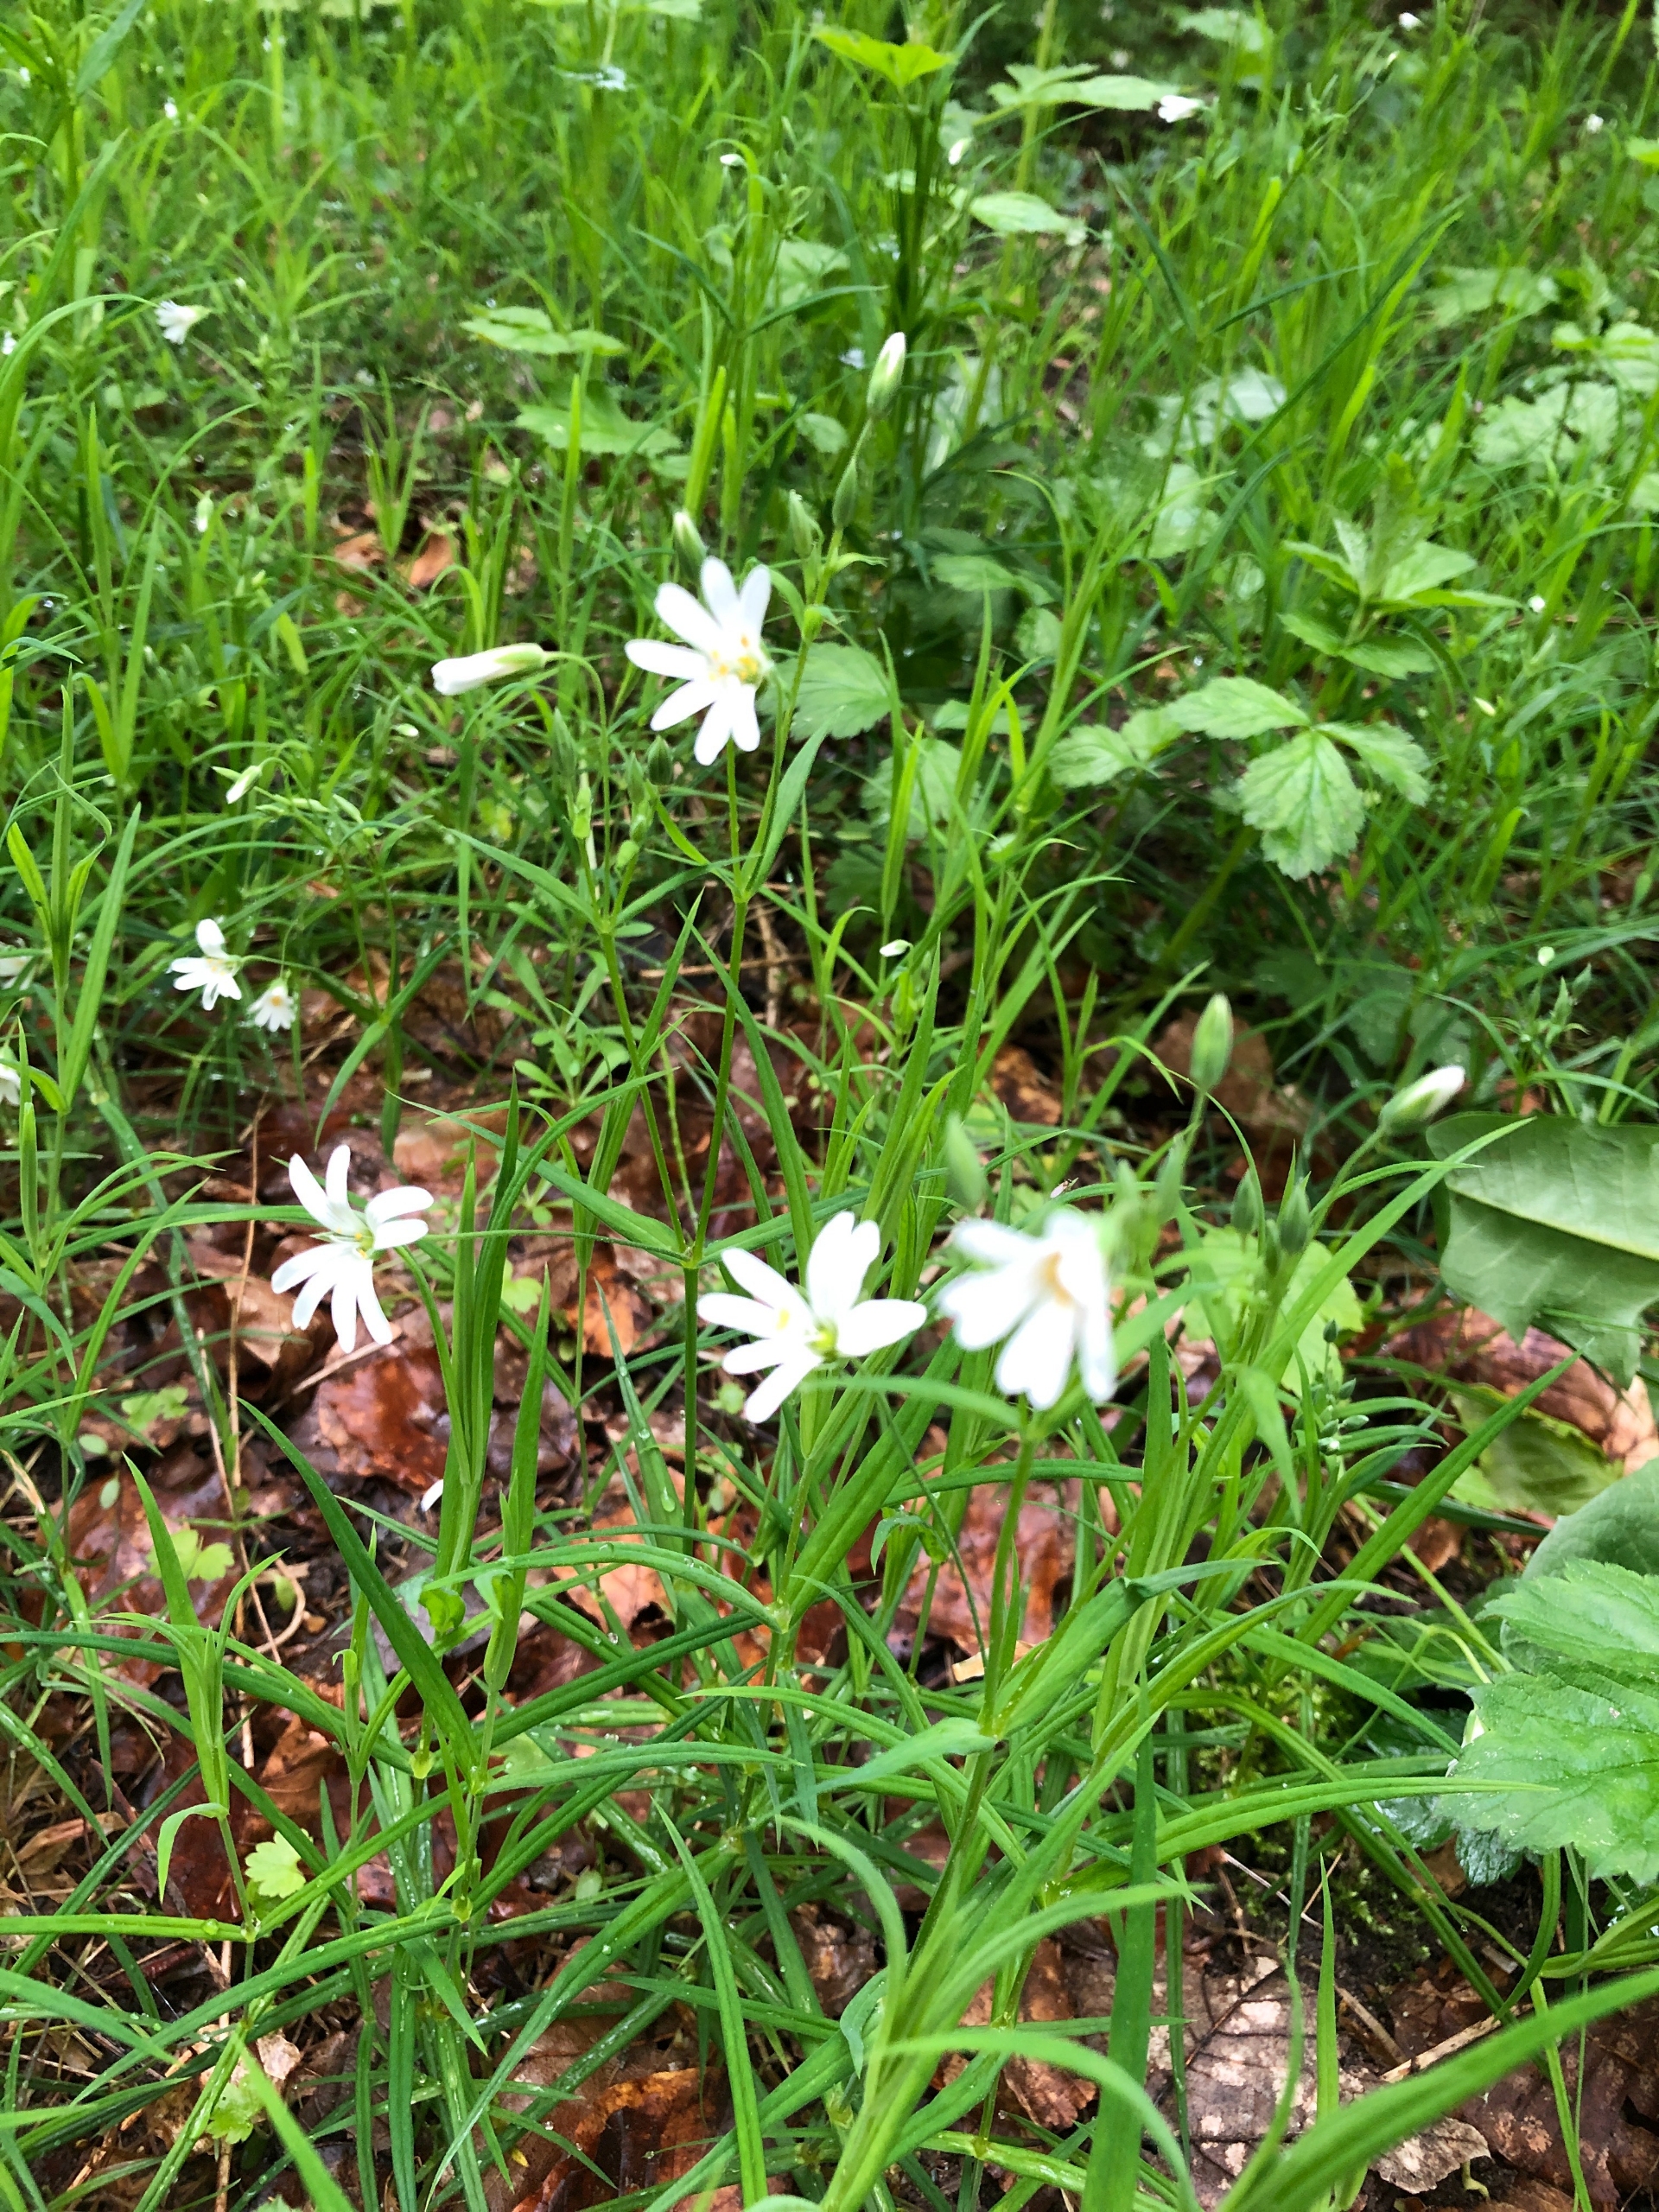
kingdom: Plantae
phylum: Tracheophyta
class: Magnoliopsida
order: Caryophyllales
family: Caryophyllaceae
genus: Rabelera
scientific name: Rabelera holostea
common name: Stor fladstjerne
